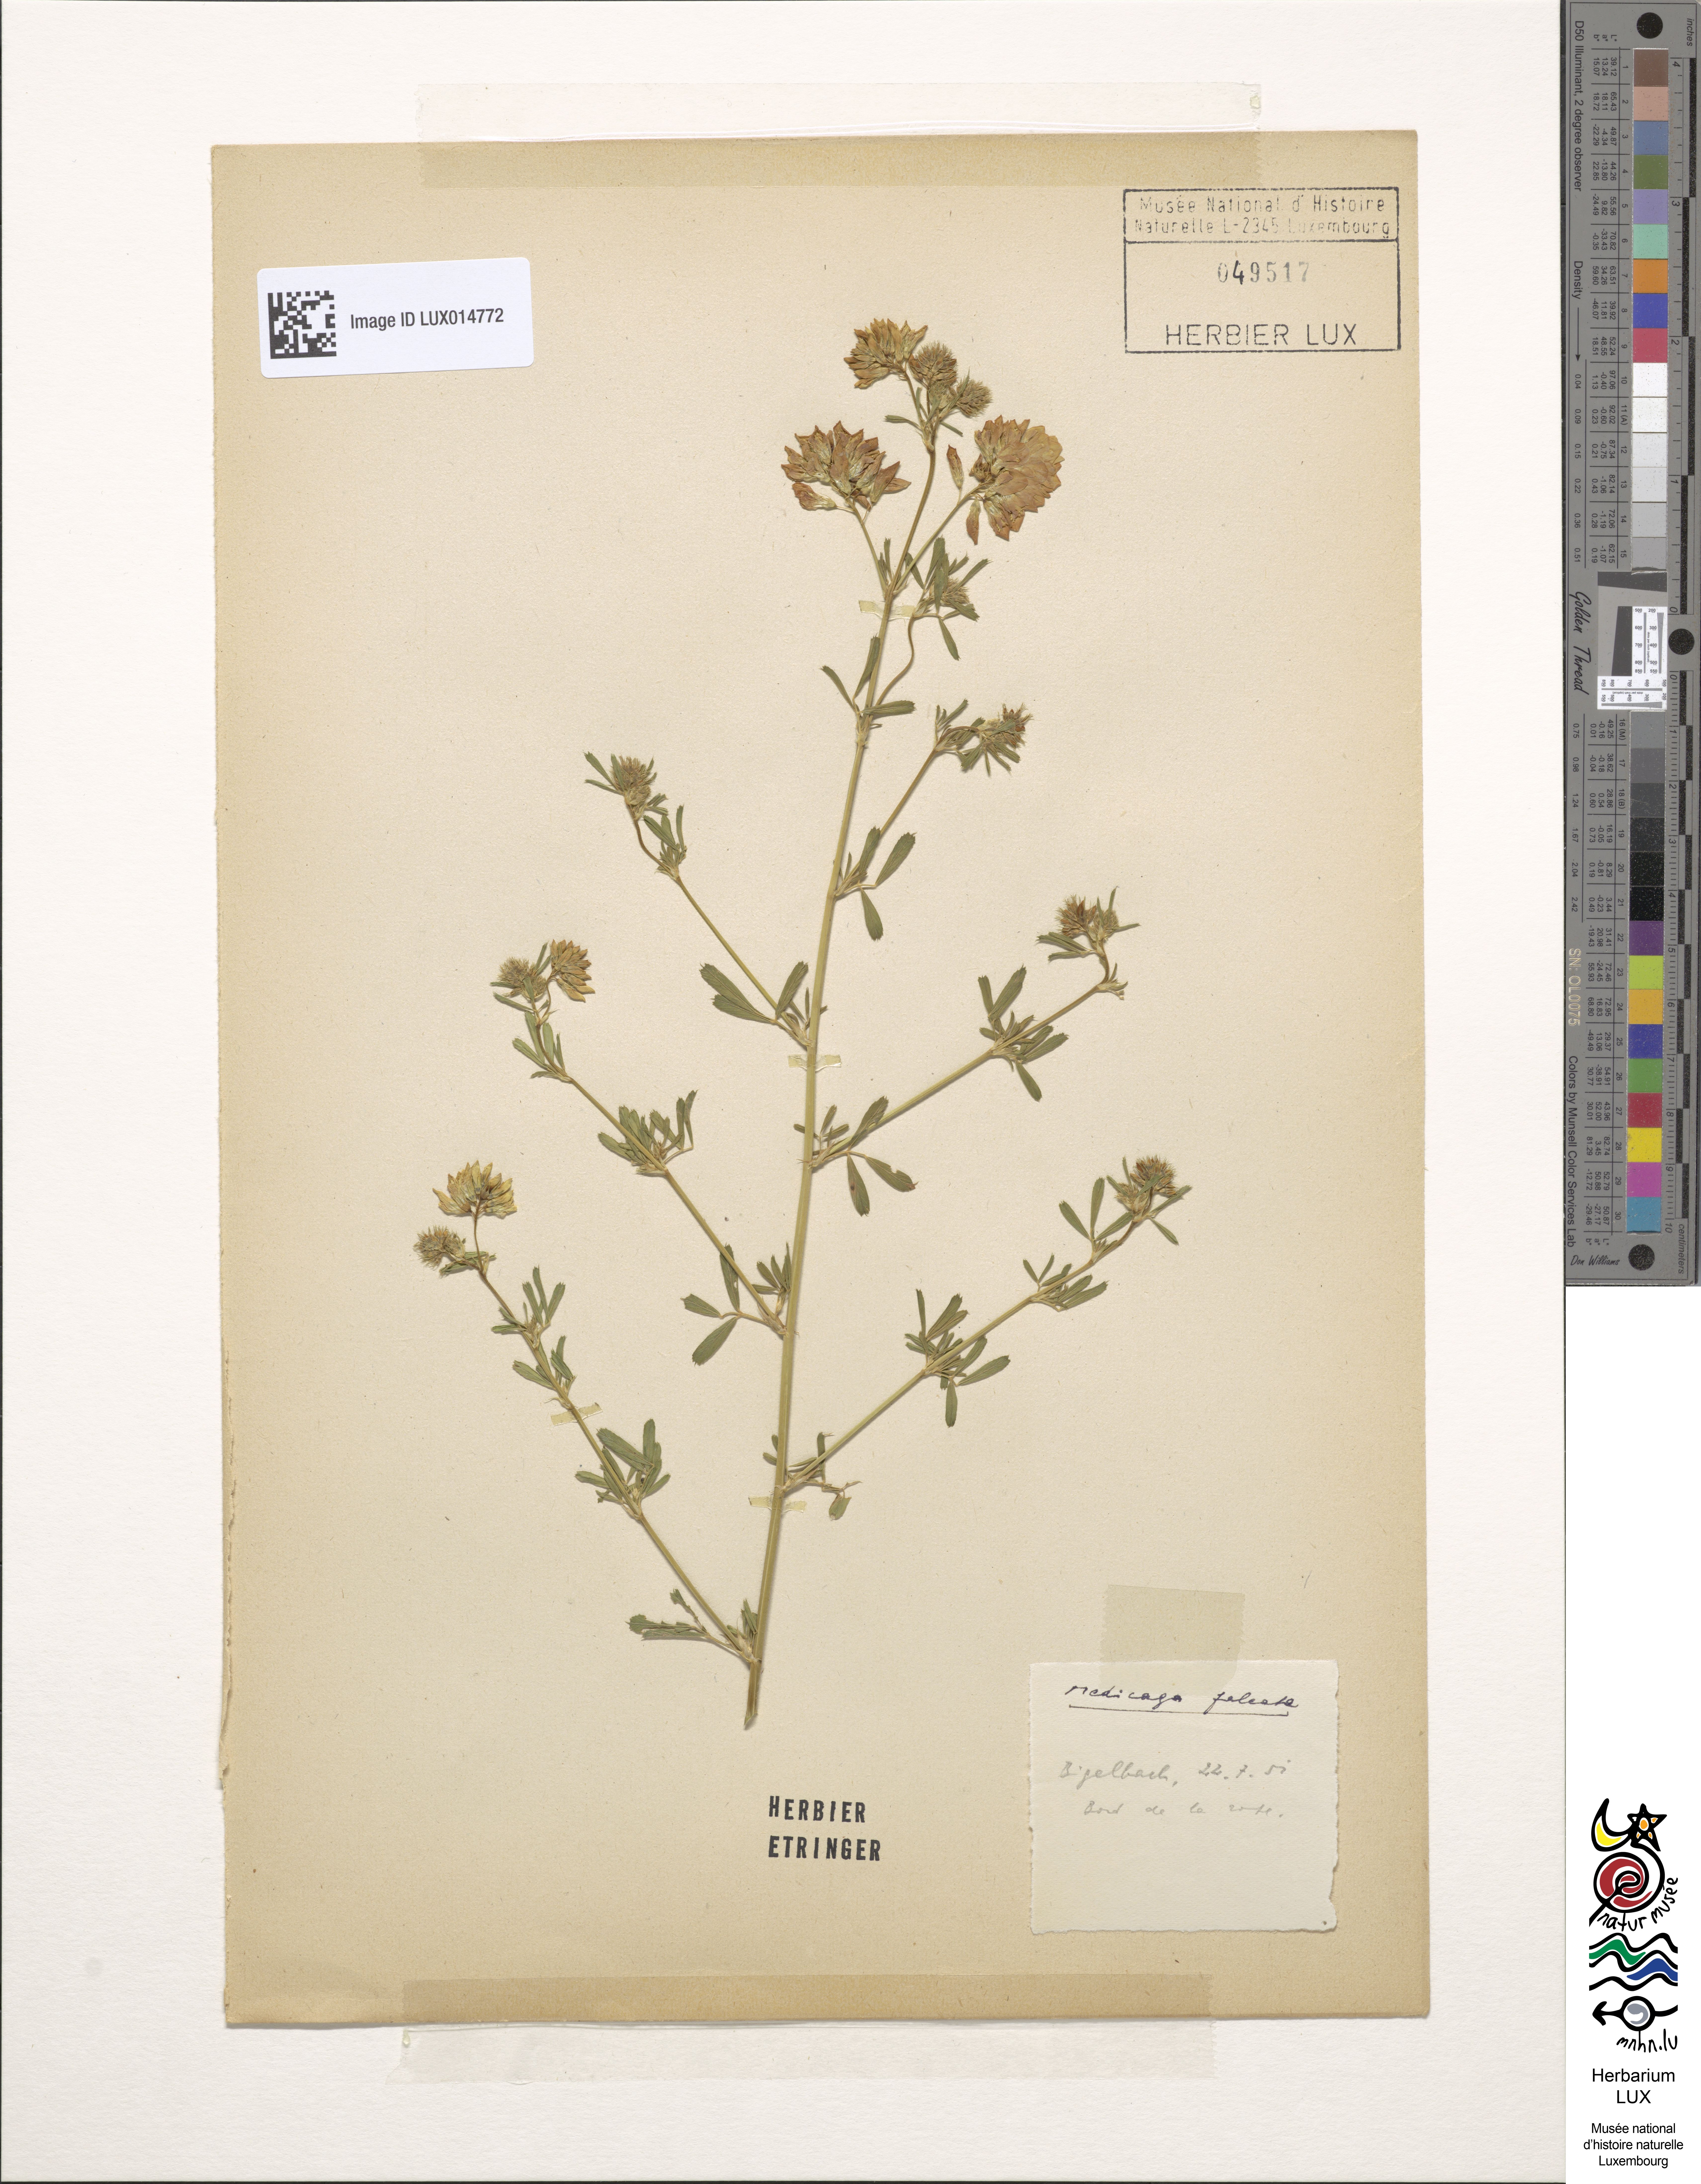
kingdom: Plantae
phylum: Tracheophyta
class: Magnoliopsida
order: Fabales
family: Fabaceae
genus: Medicago
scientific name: Medicago falcata
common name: Sickle medick
